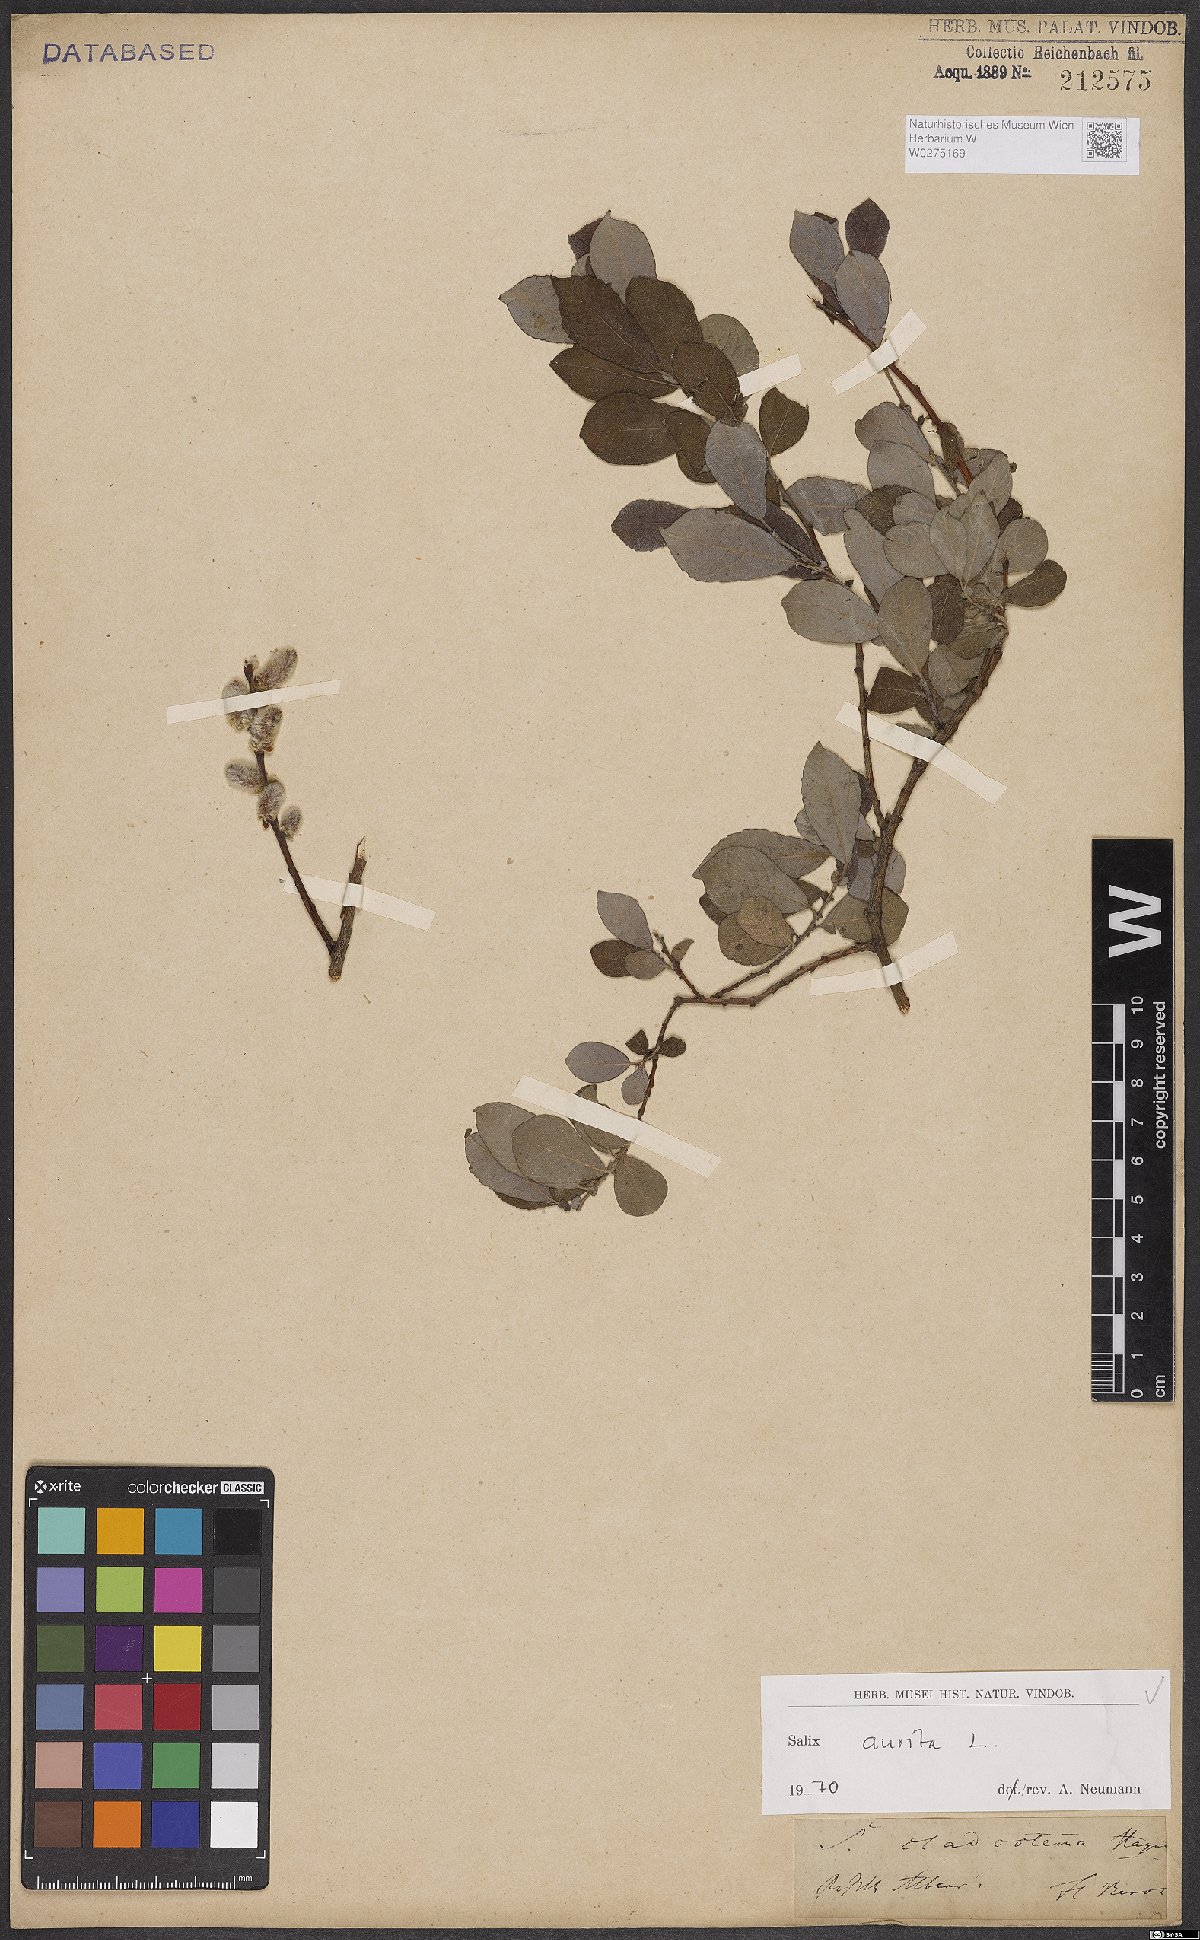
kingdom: Plantae
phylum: Tracheophyta
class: Magnoliopsida
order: Malpighiales
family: Salicaceae
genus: Salix
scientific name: Salix aurita
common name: Eared willow
